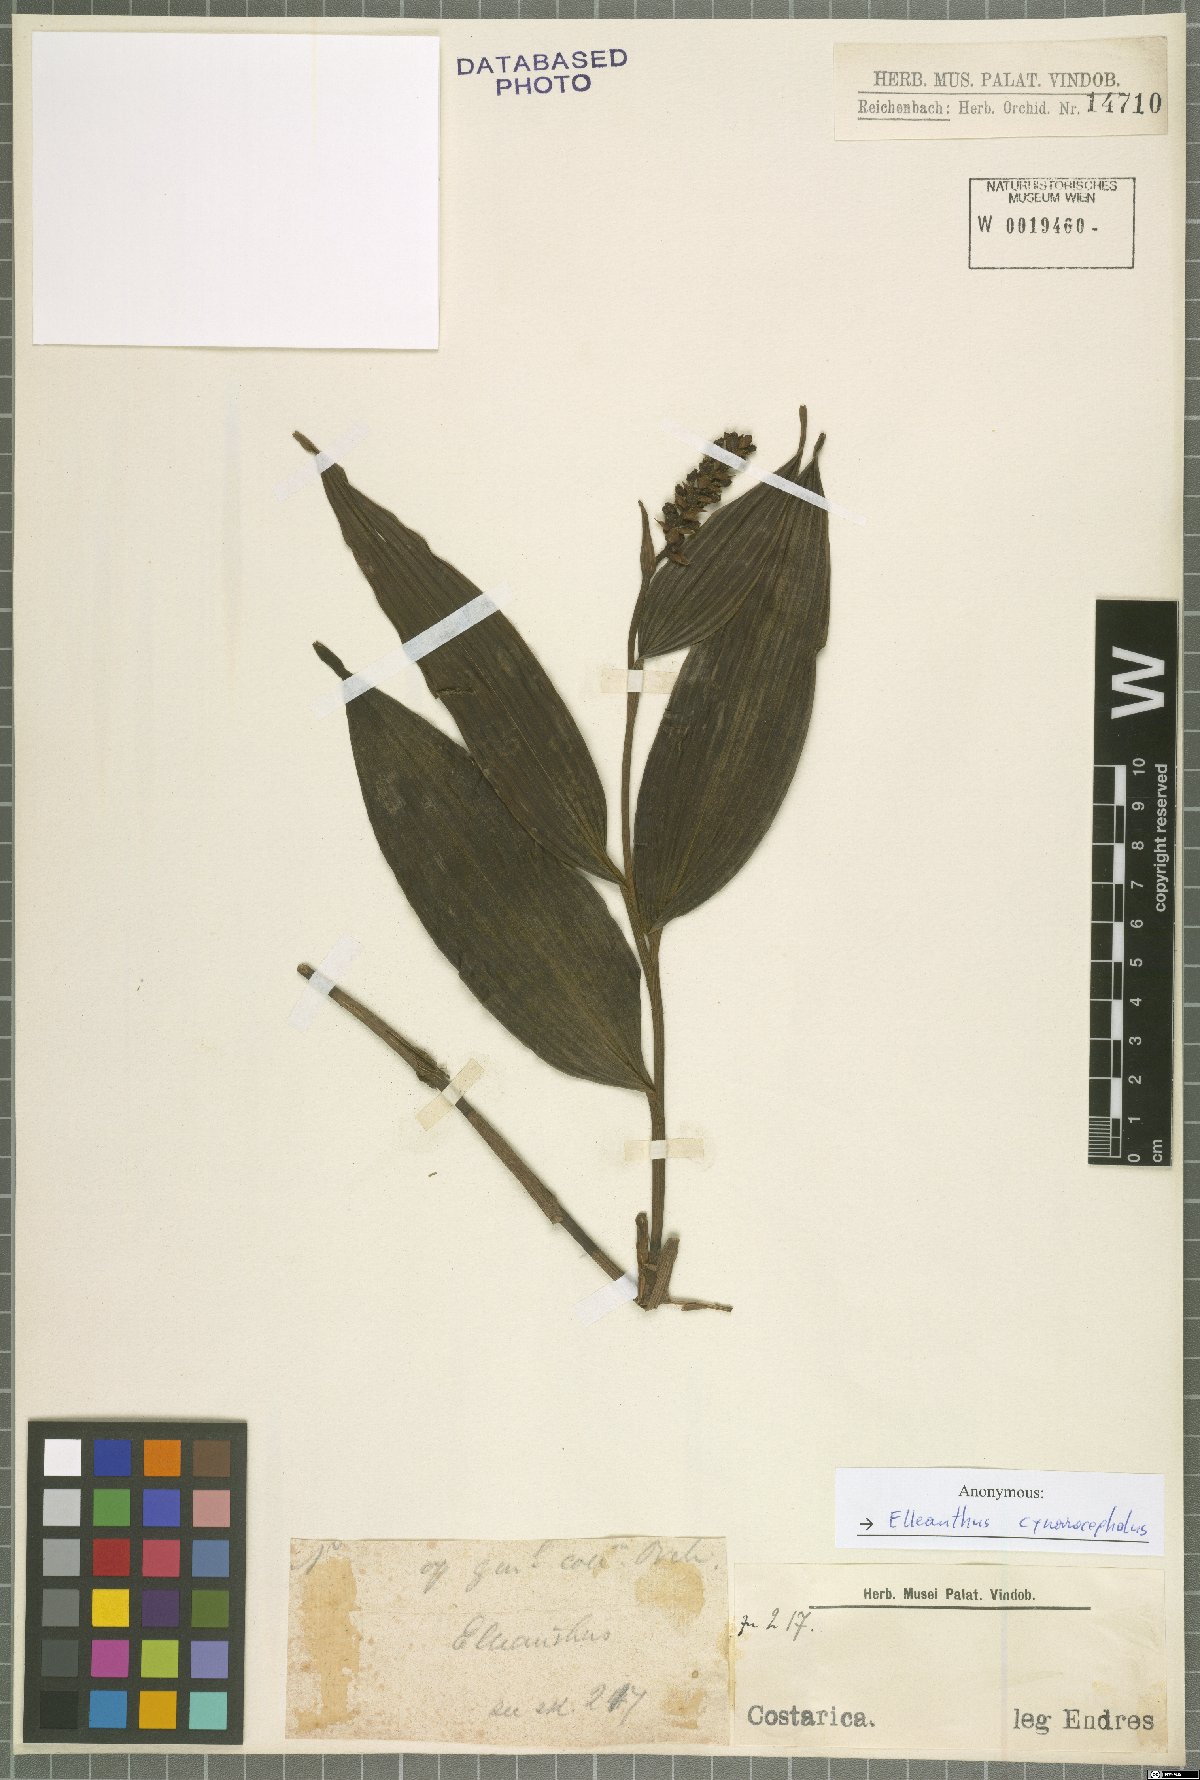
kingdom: Plantae
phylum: Tracheophyta
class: Liliopsida
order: Asparagales
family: Orchidaceae
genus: Elleanthus
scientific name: Elleanthus capitatus
